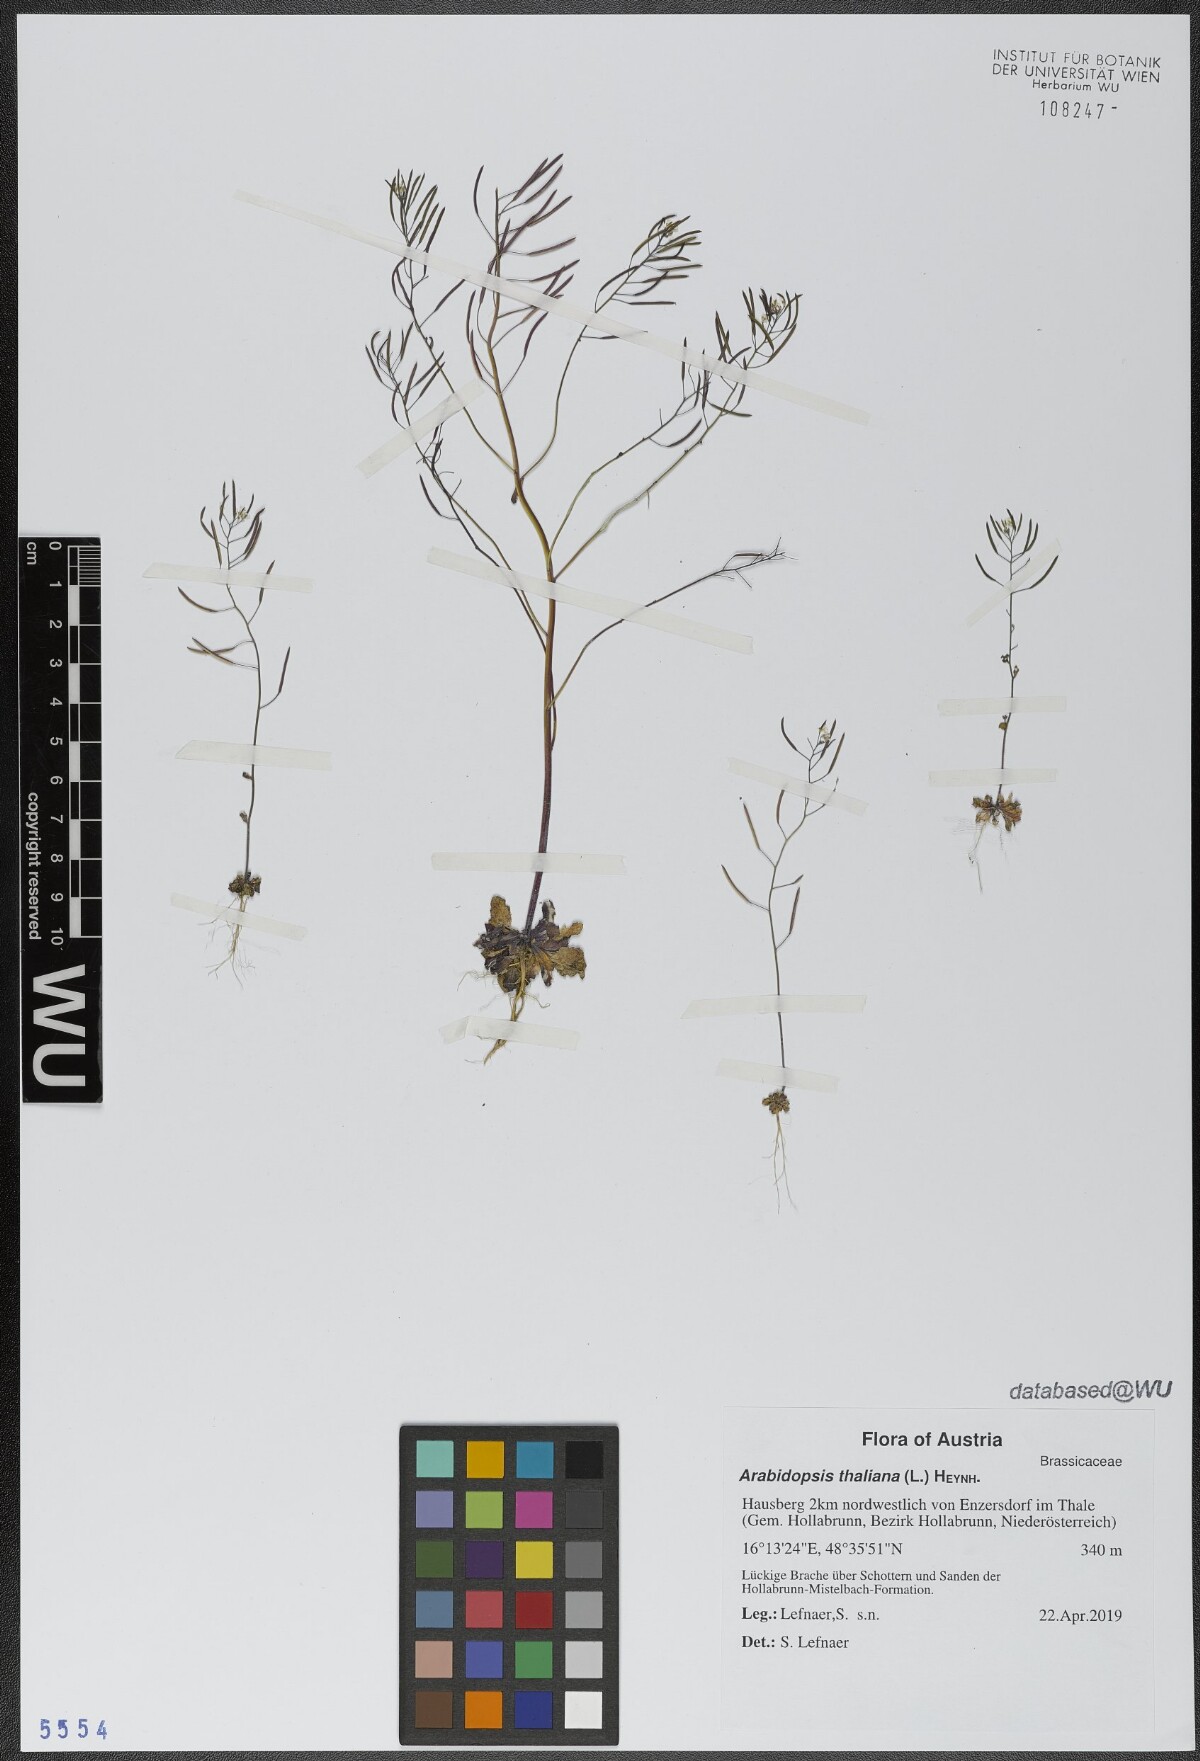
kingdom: Plantae
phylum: Tracheophyta
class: Magnoliopsida
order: Brassicales
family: Brassicaceae
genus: Arabidopsis
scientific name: Arabidopsis thaliana
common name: Thale cress
